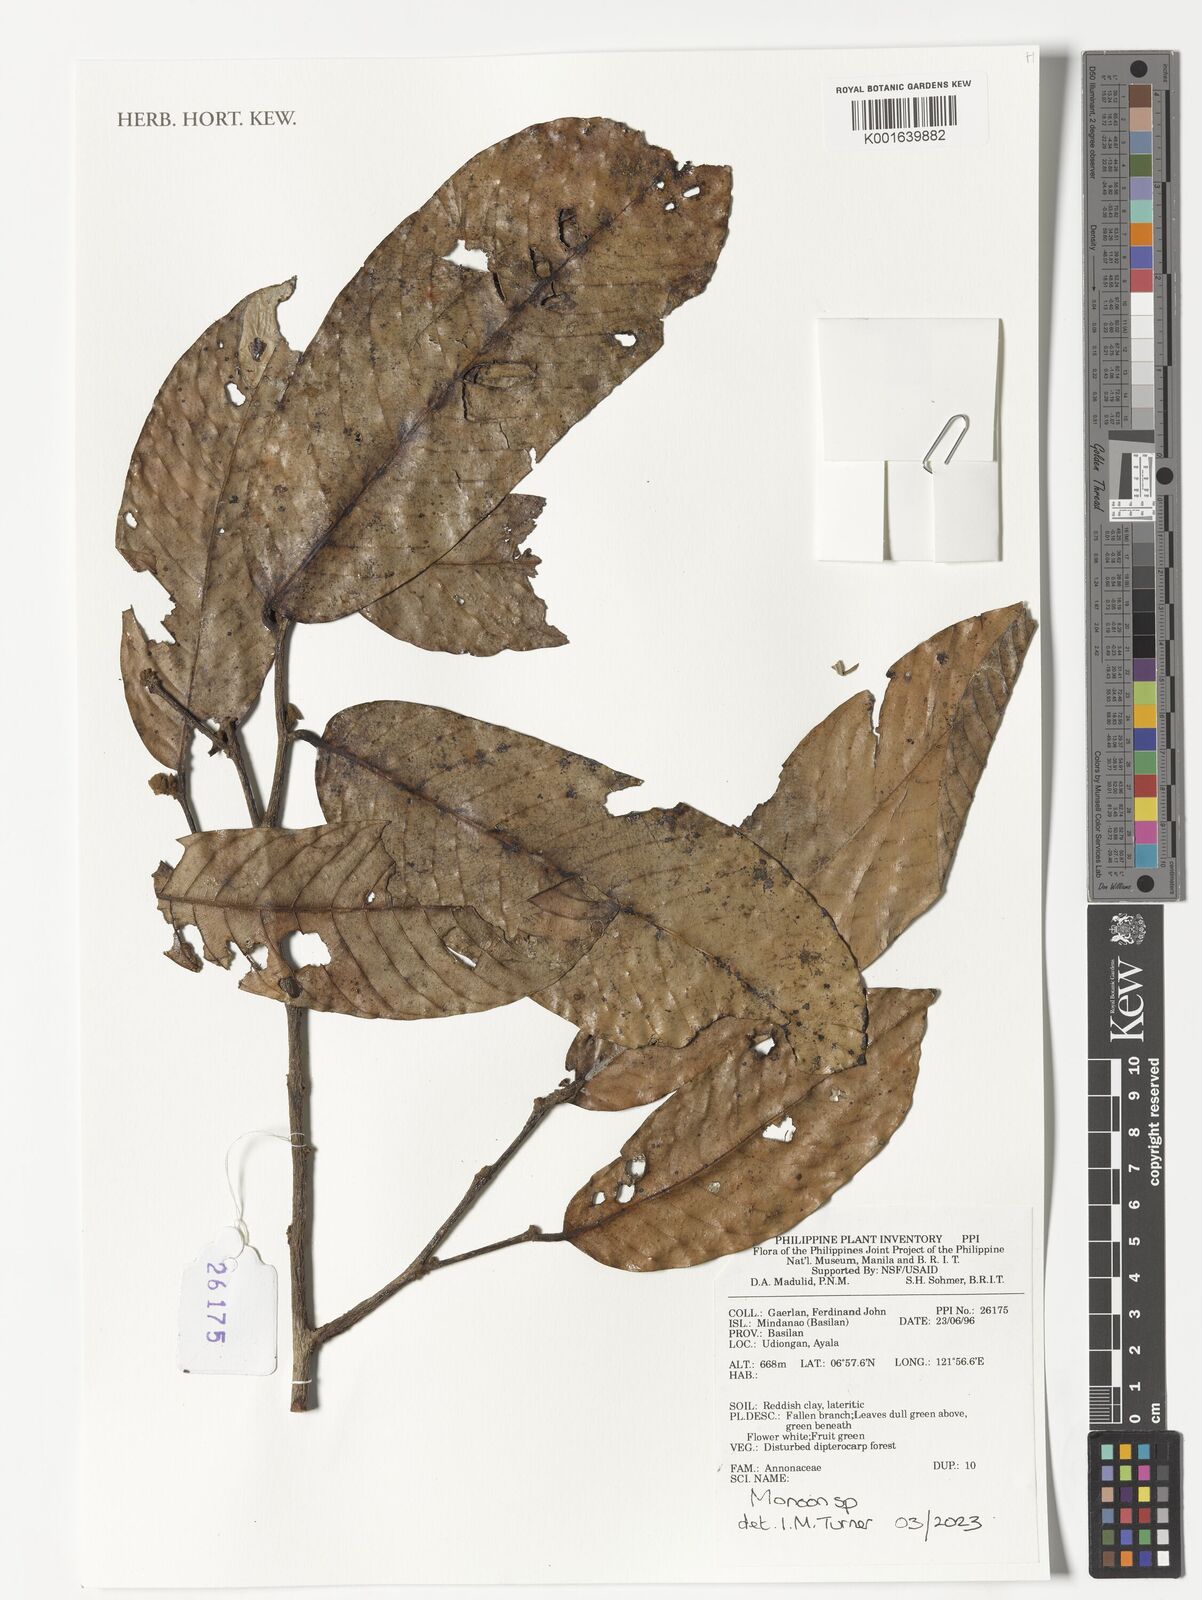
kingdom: Plantae
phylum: Tracheophyta
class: Magnoliopsida
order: Magnoliales
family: Annonaceae
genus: Monoon
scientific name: Monoon
